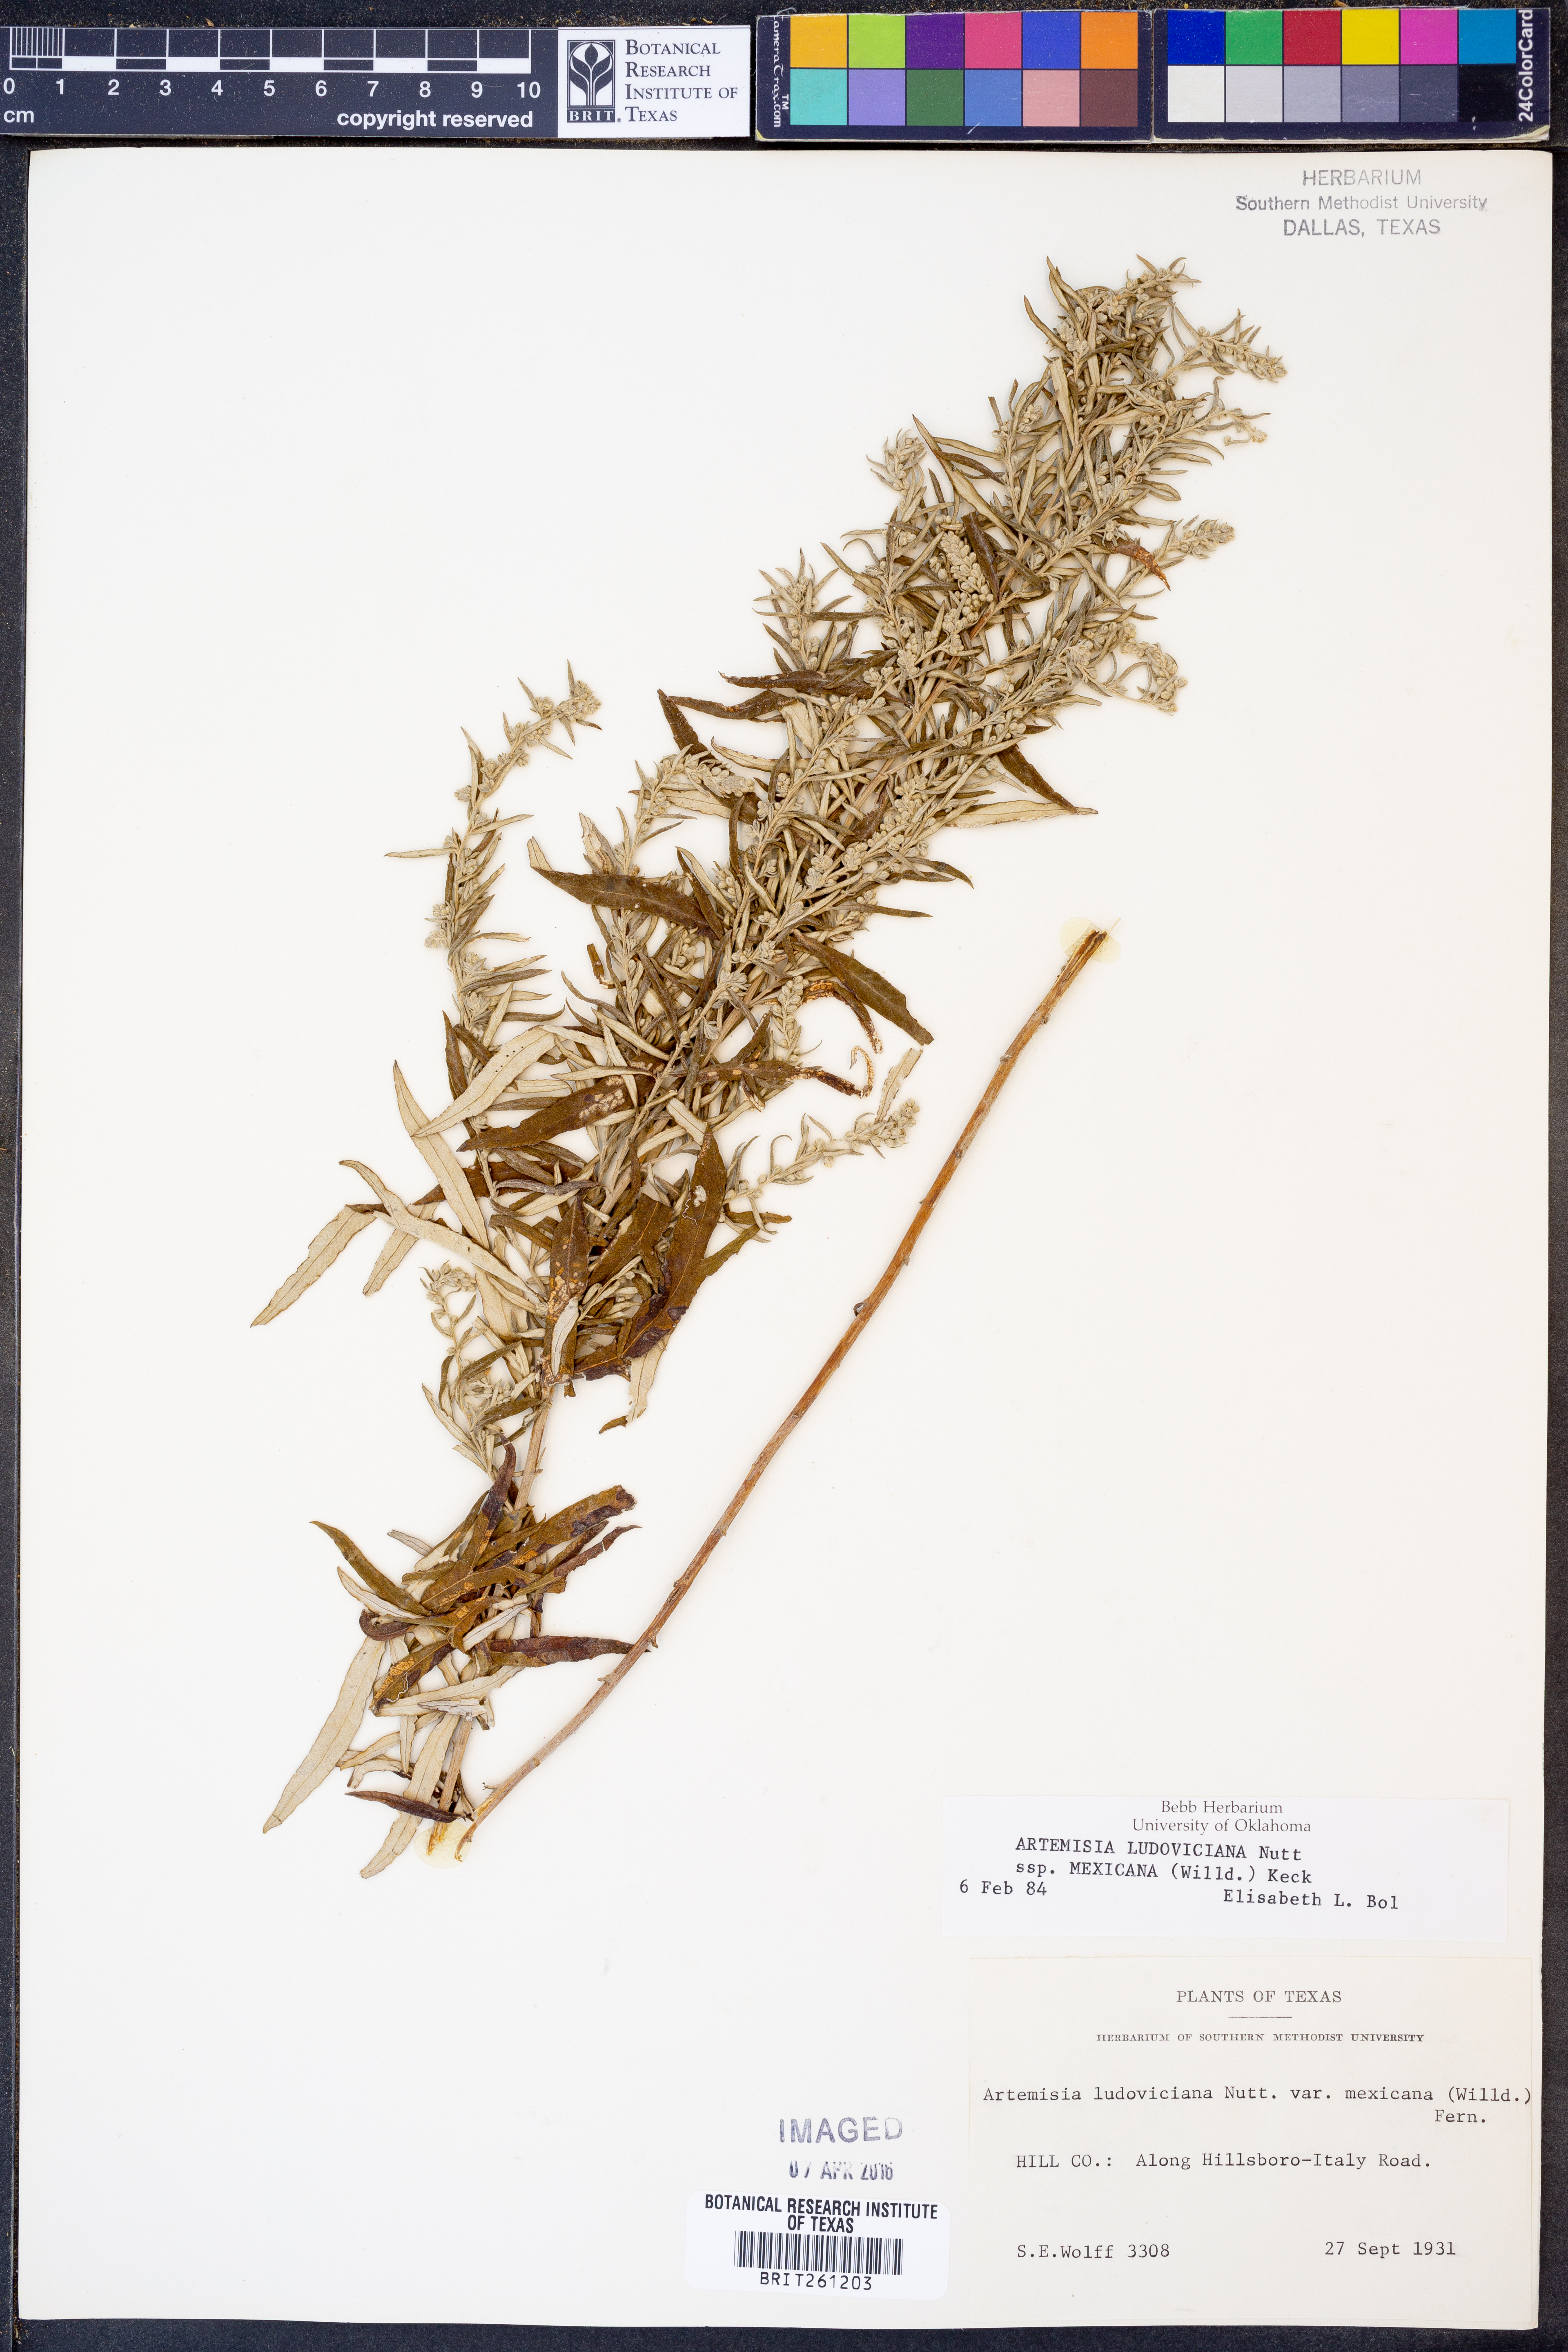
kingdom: Plantae
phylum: Tracheophyta
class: Magnoliopsida
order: Asterales
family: Asteraceae
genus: Artemisia
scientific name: Artemisia ludoviciana
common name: Western mugwort
